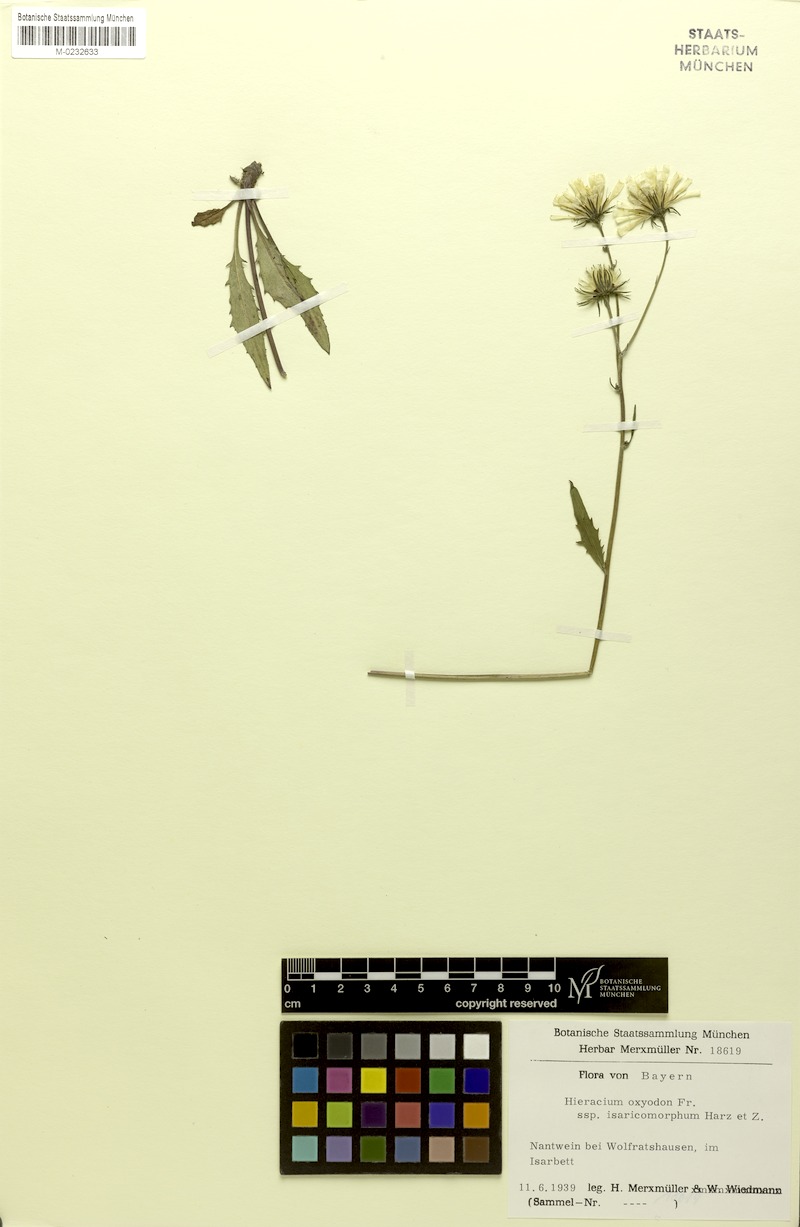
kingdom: Plantae
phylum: Tracheophyta
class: Magnoliopsida
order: Asterales
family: Asteraceae
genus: Hieracium
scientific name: Hieracium oxyodon
